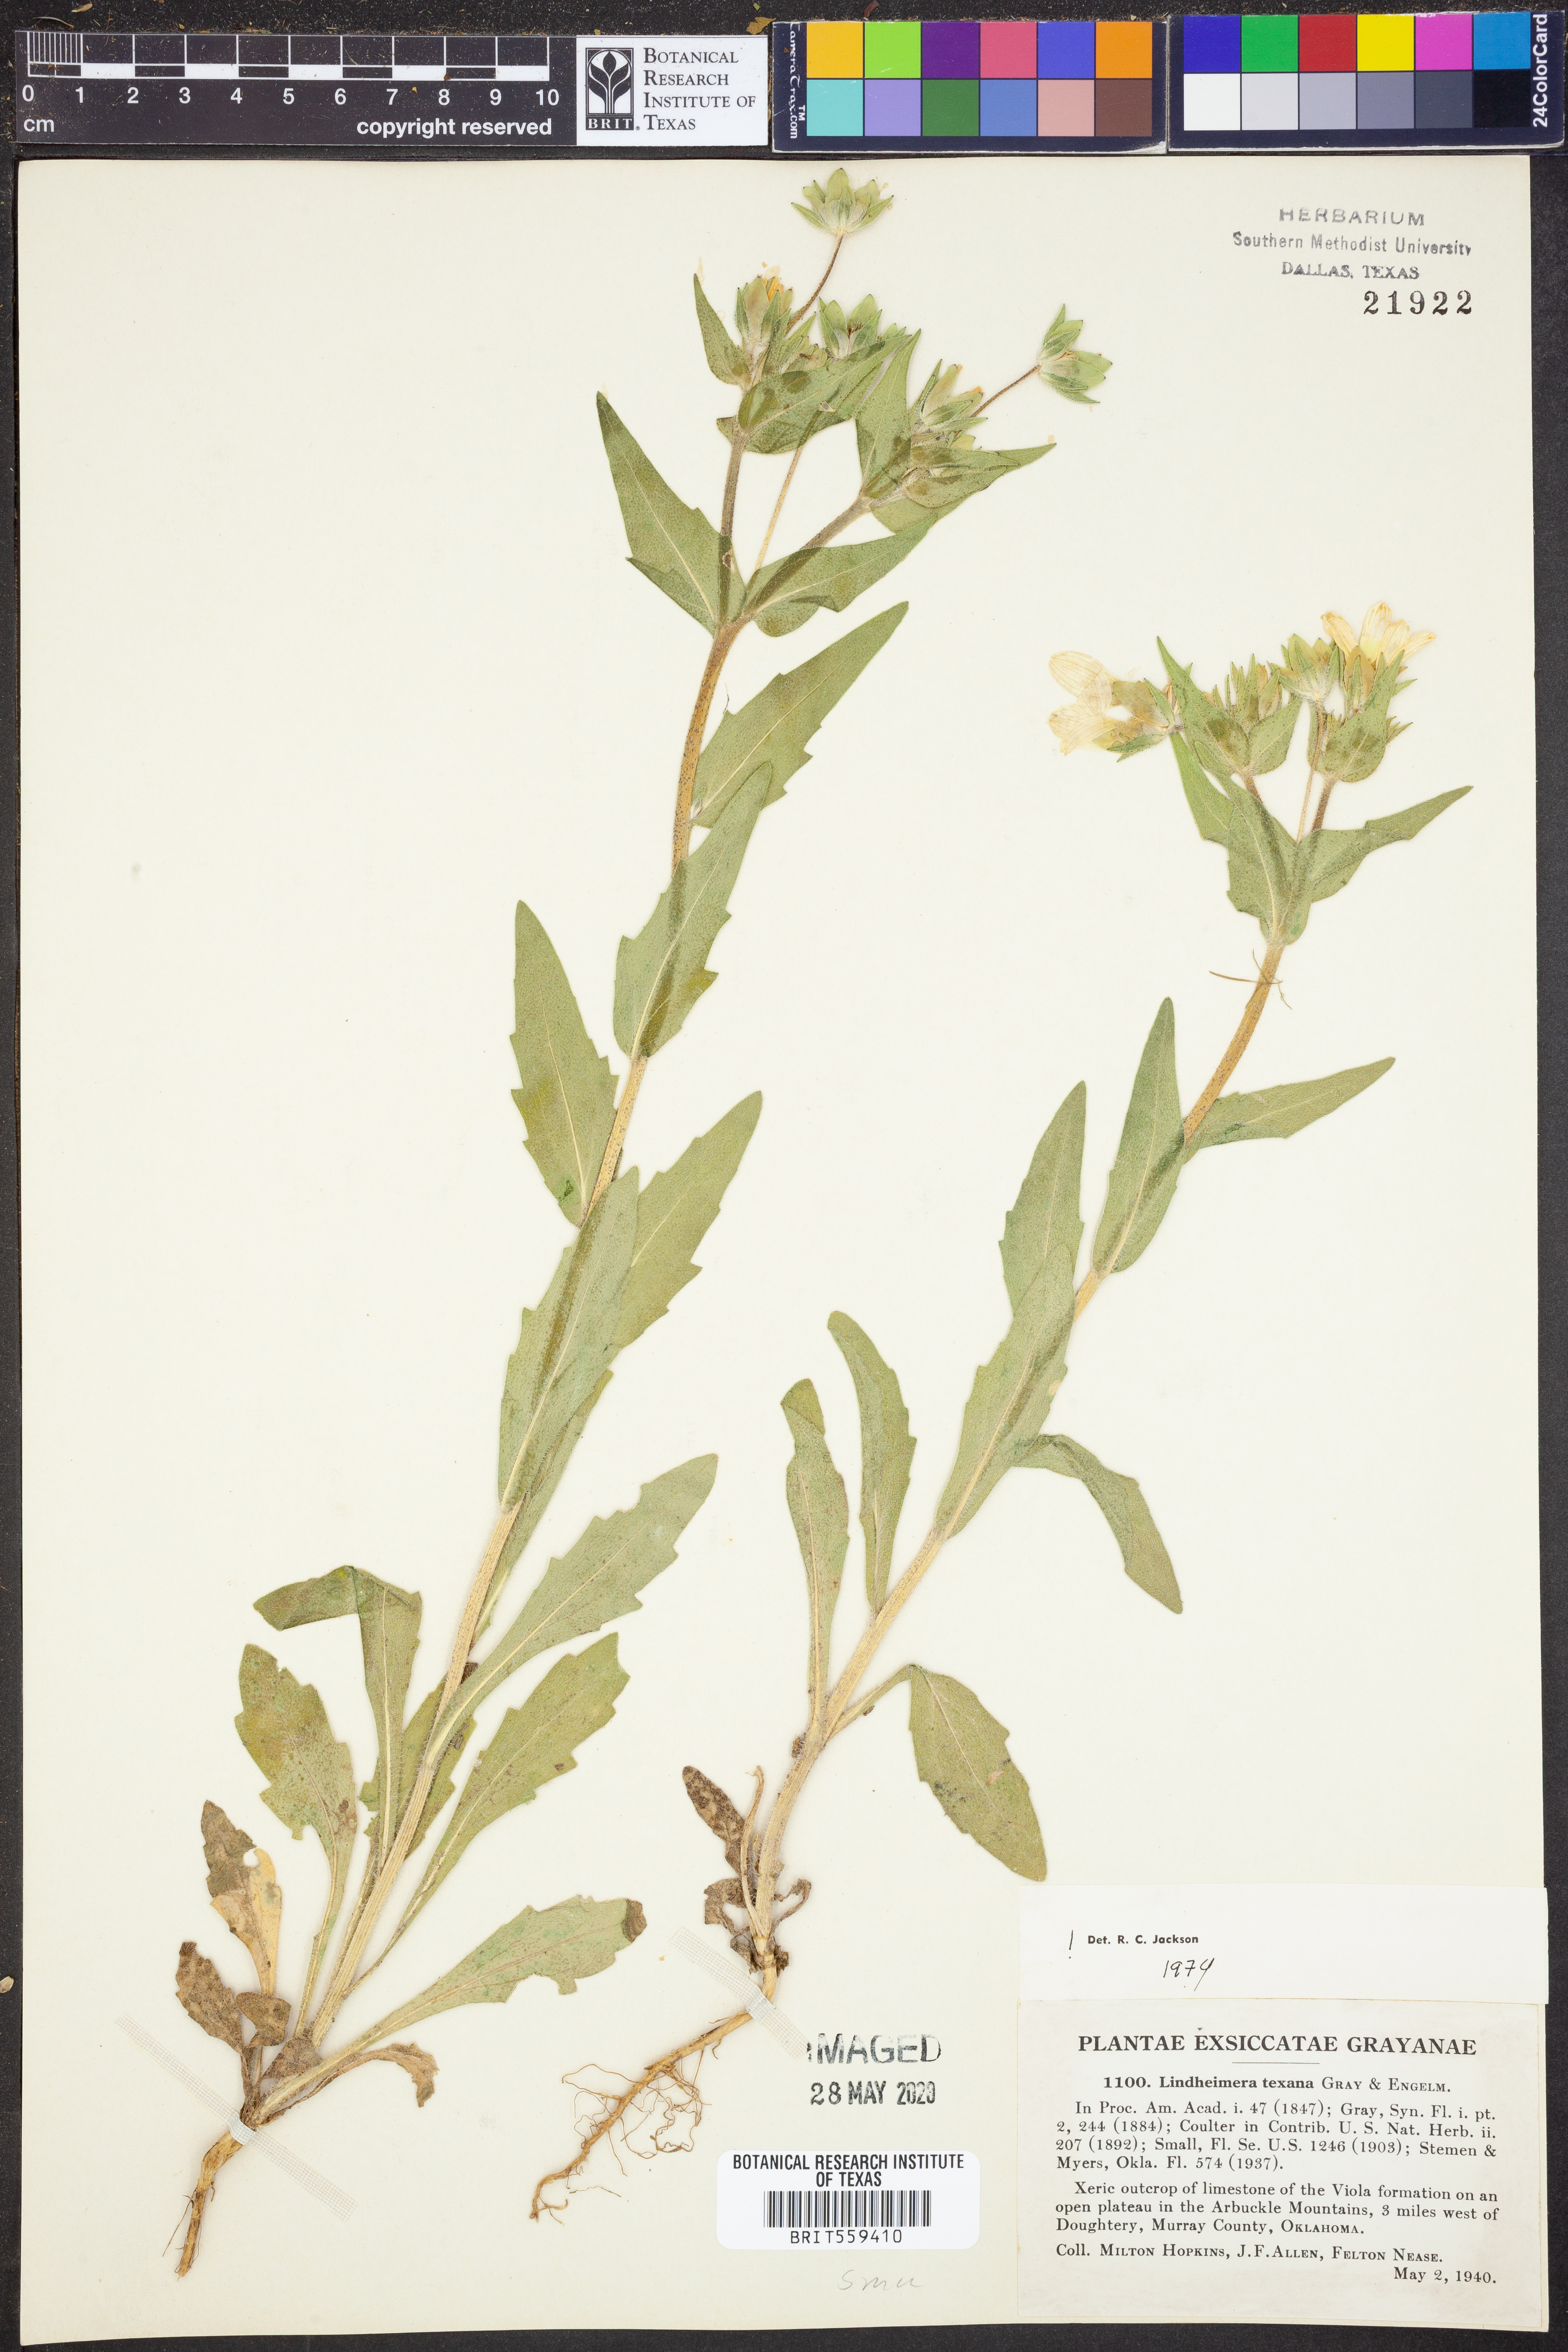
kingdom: Plantae
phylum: Tracheophyta
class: Magnoliopsida
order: Asterales
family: Asteraceae
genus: Lindheimera
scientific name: Lindheimera texana
